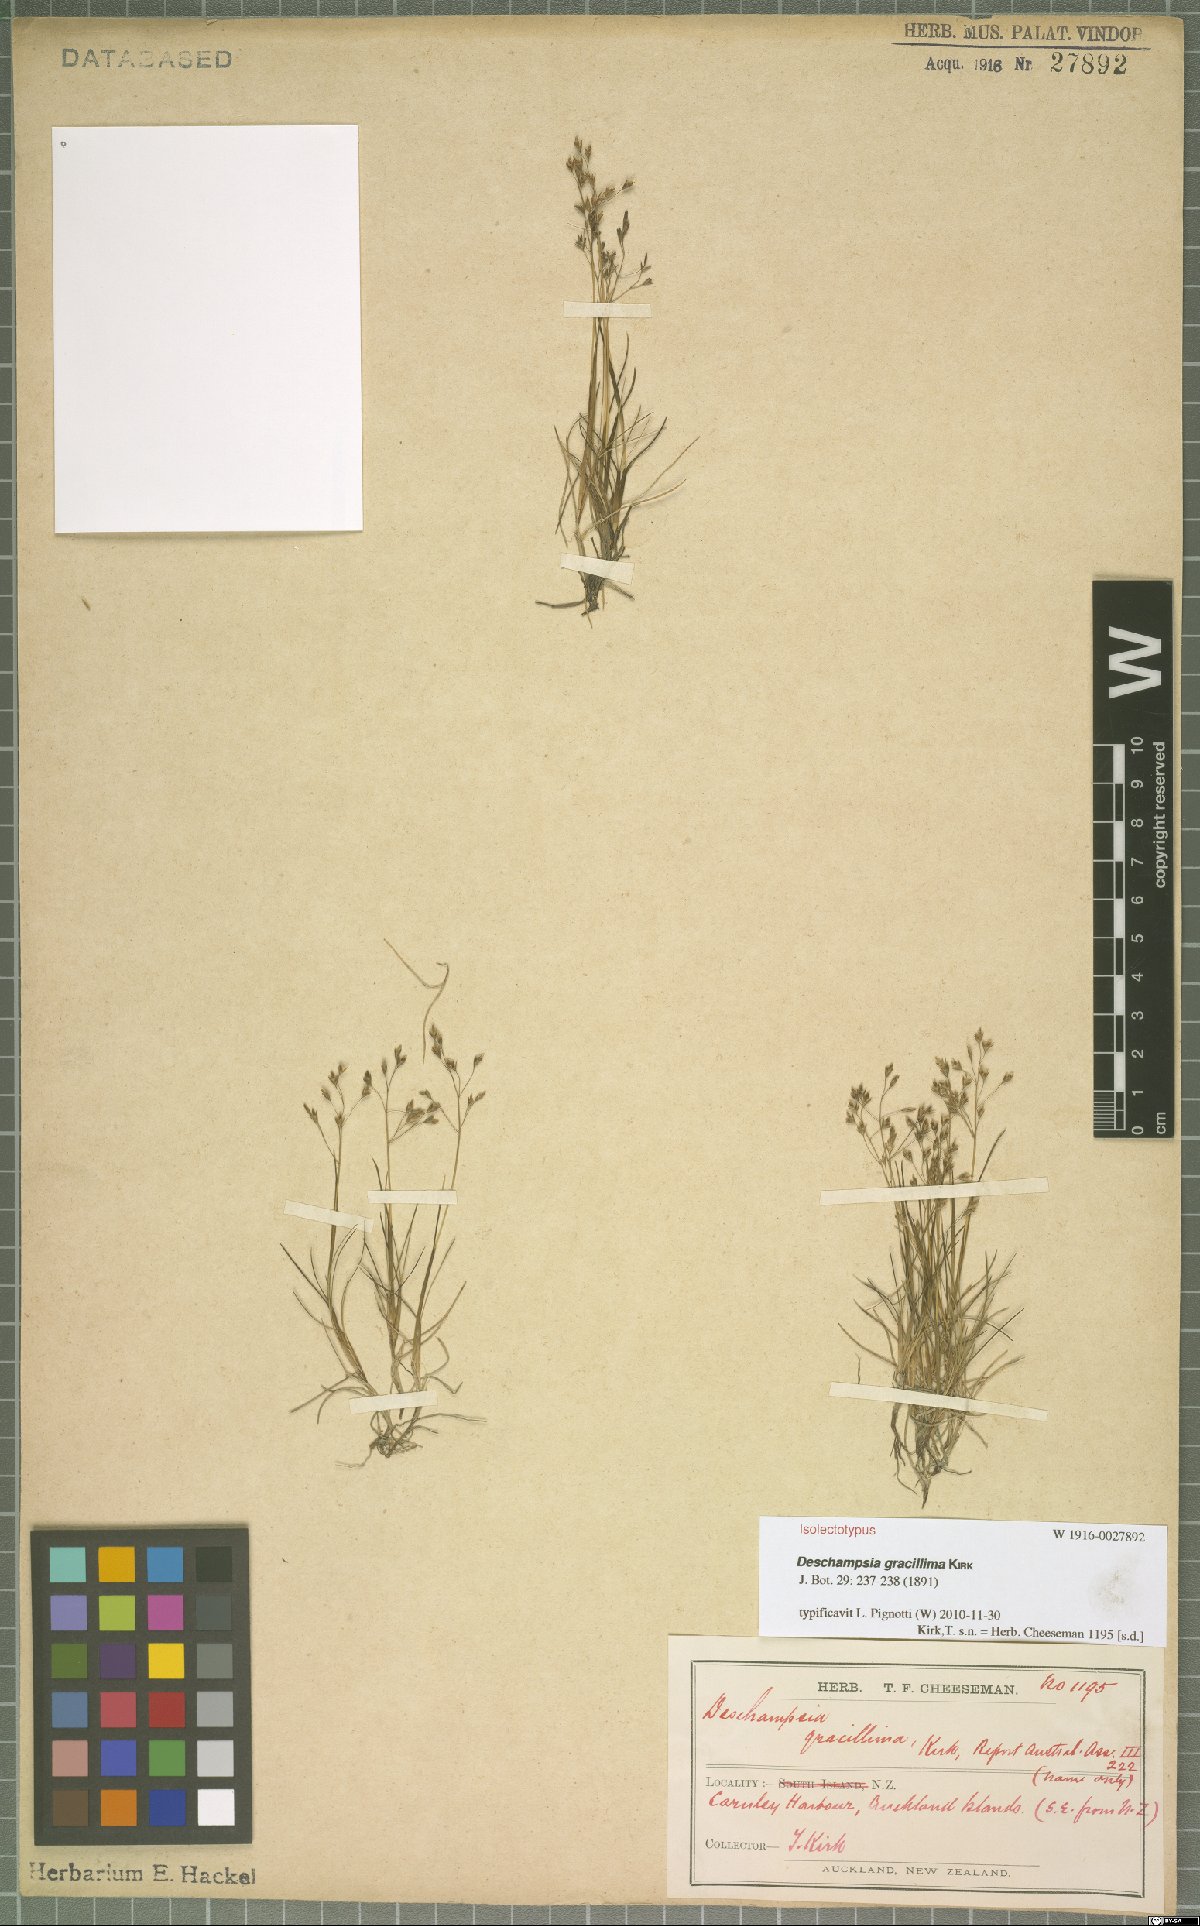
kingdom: Plantae
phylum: Tracheophyta
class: Liliopsida
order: Poales
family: Poaceae
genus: Deschampsia
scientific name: Deschampsia gracillima
